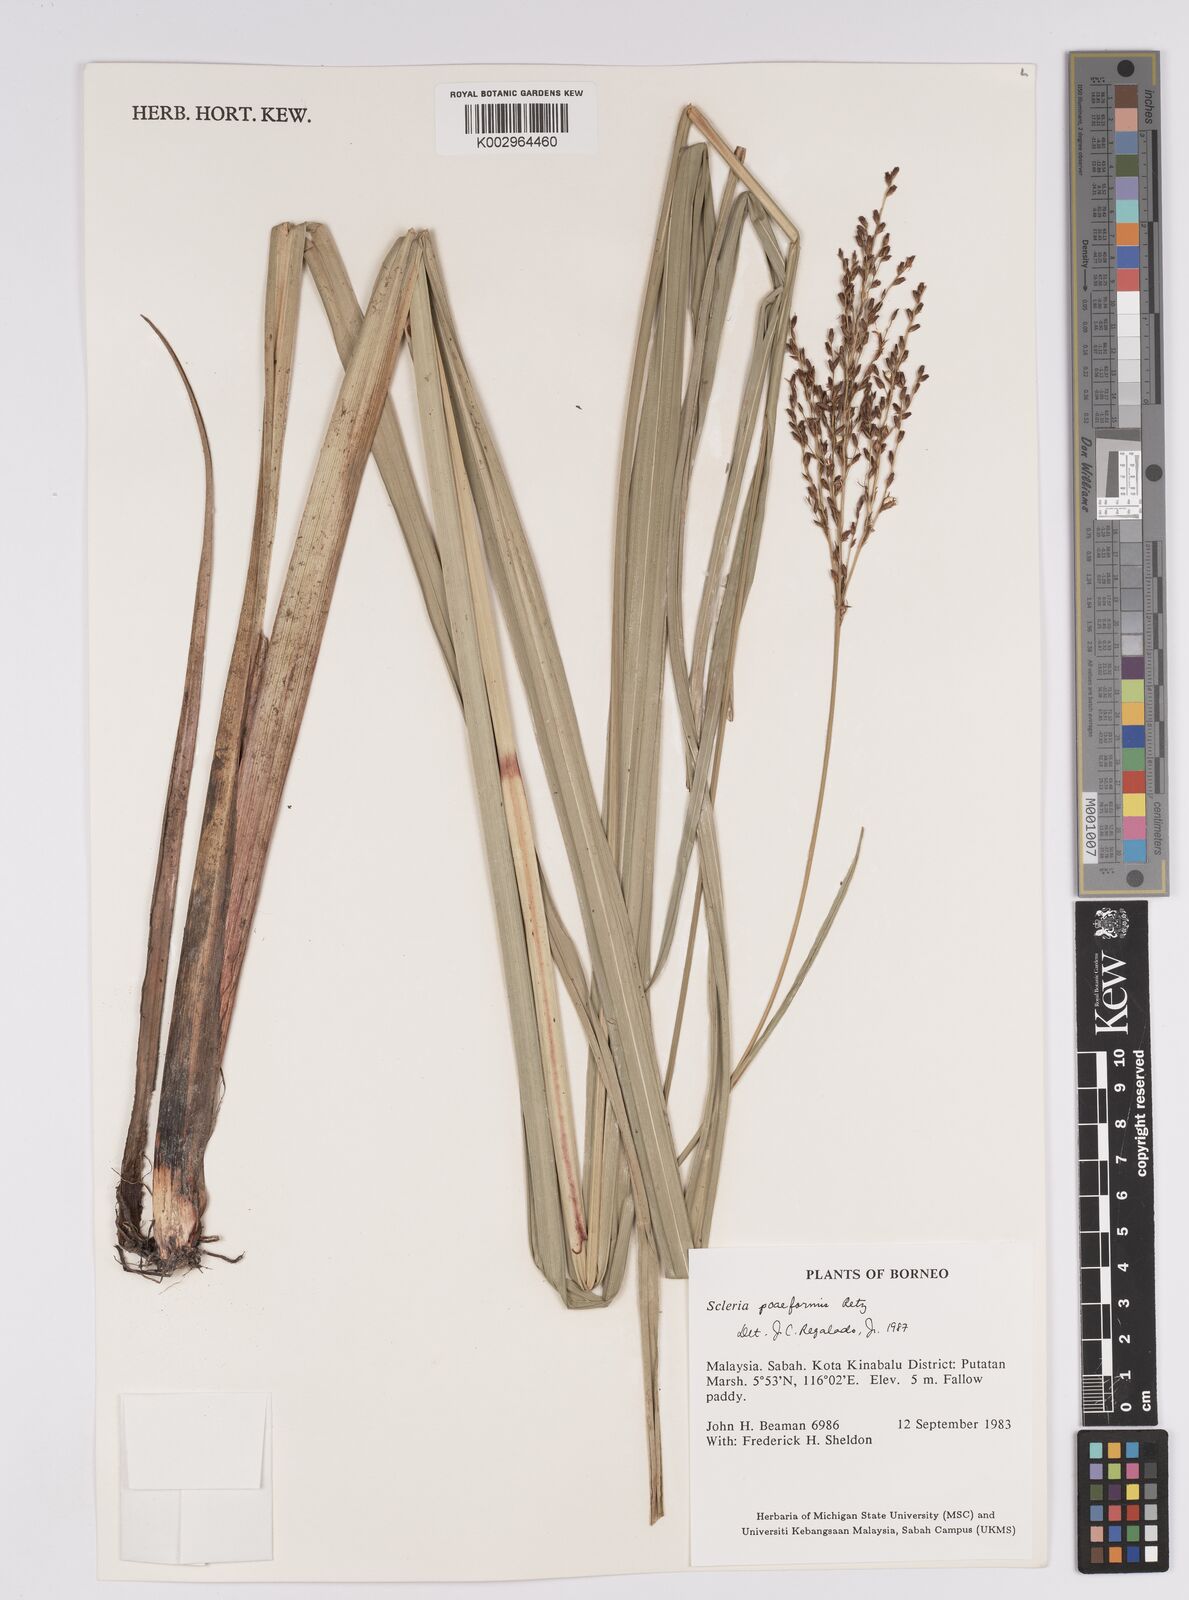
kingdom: Plantae
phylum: Tracheophyta
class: Liliopsida
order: Poales
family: Cyperaceae
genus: Scleria
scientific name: Scleria poiformis
